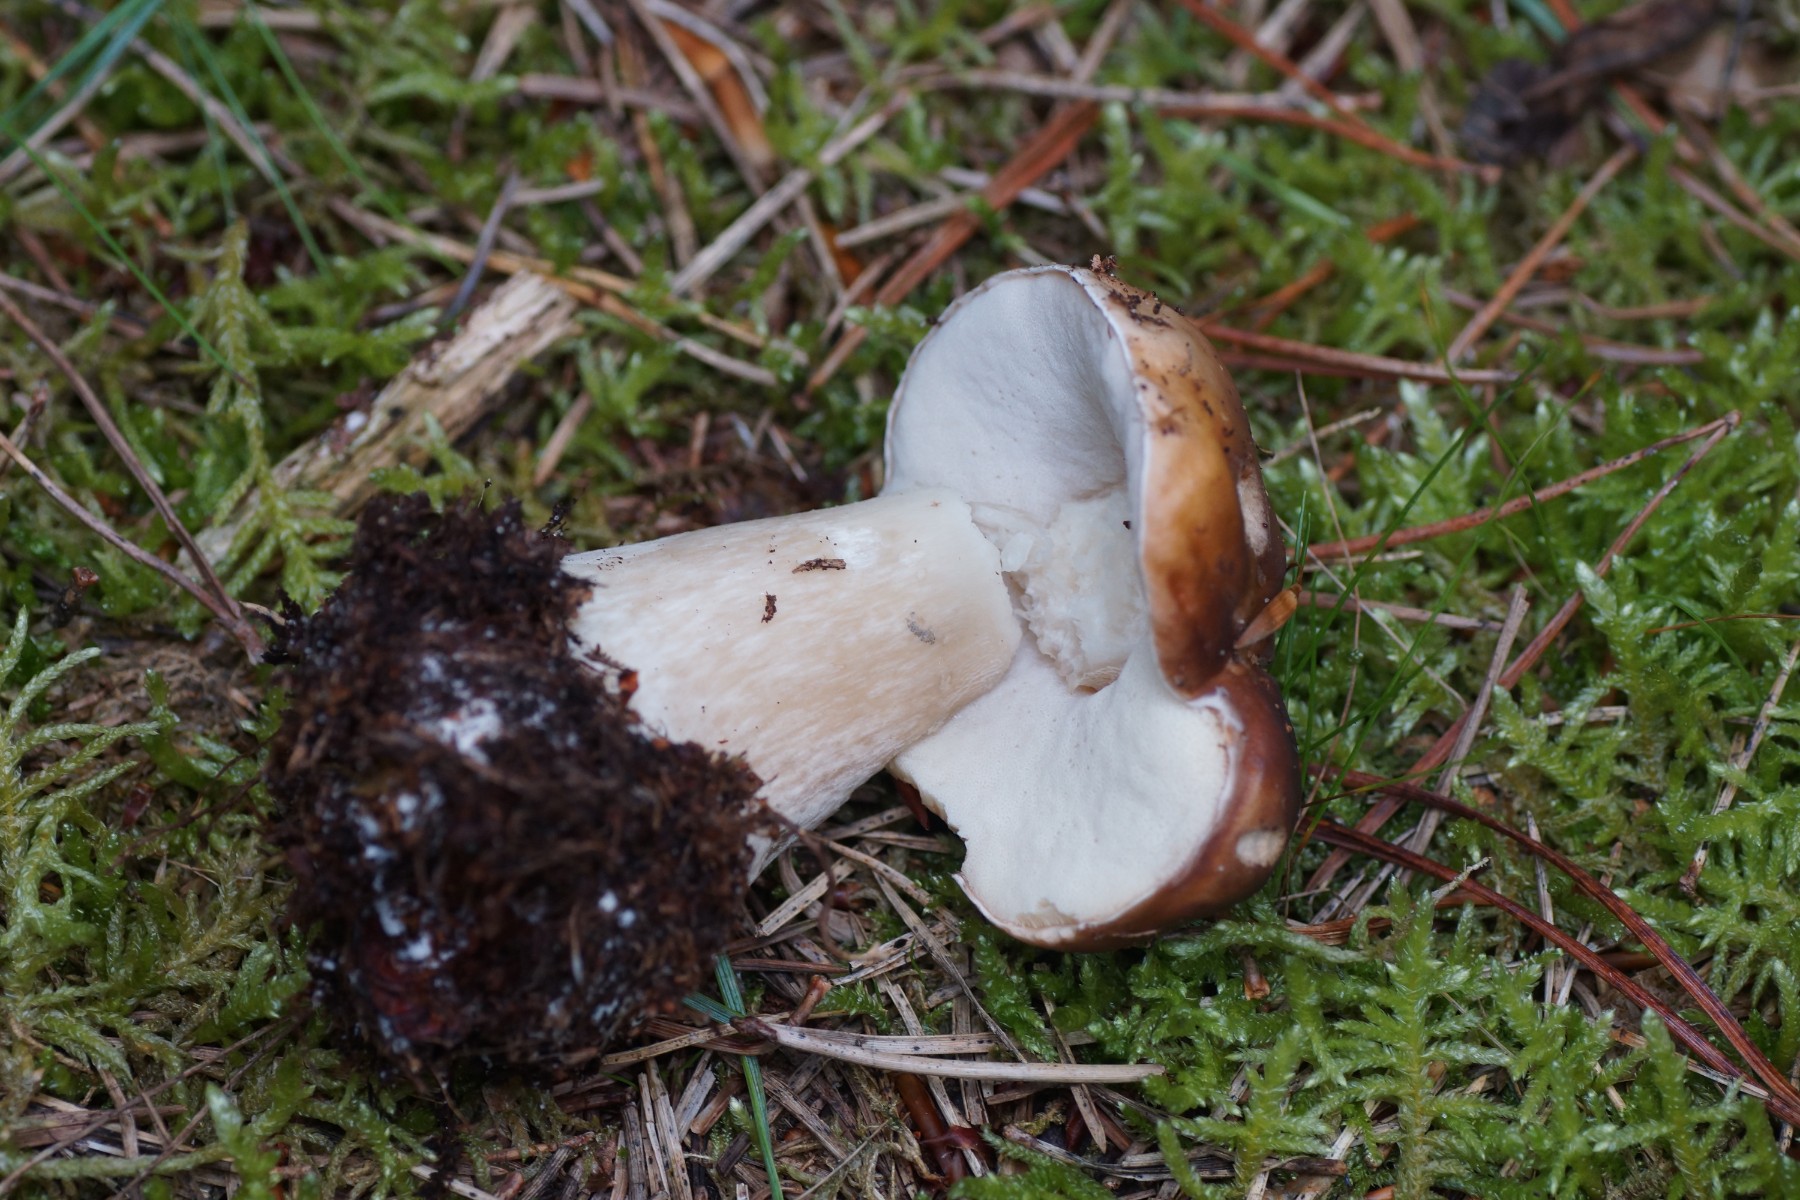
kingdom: Fungi
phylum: Basidiomycota
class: Agaricomycetes
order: Boletales
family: Boletaceae
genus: Boletus
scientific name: Boletus edulis
